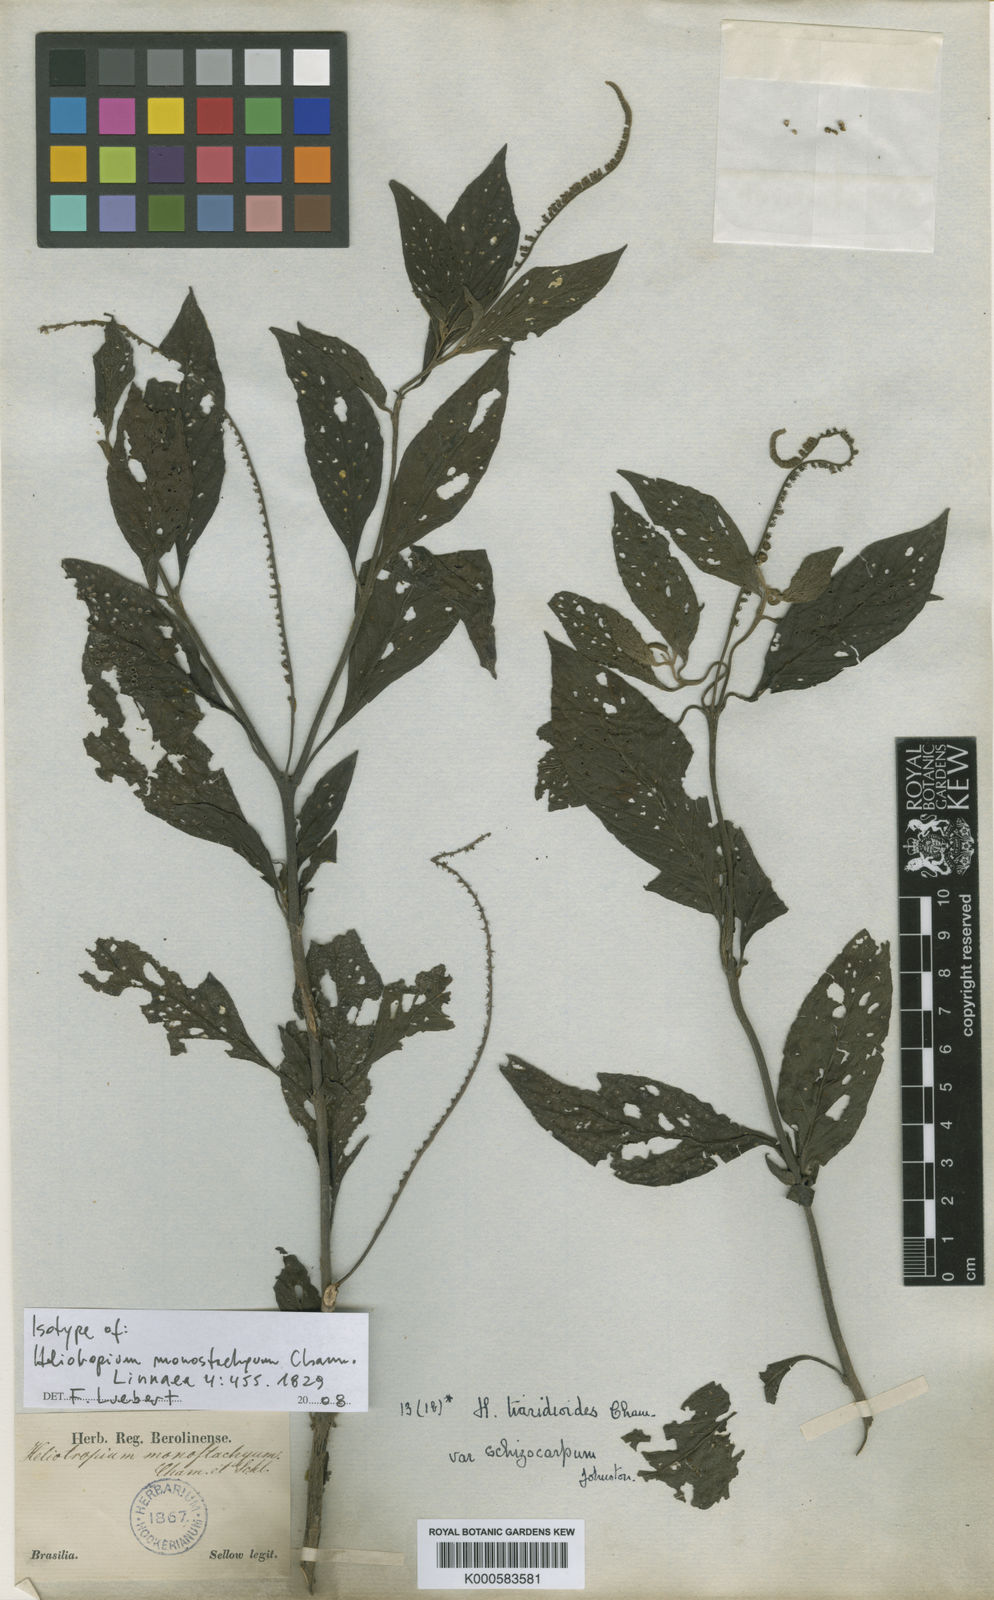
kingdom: Plantae
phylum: Tracheophyta
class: Magnoliopsida
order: Boraginales
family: Heliotropiaceae
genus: Heliotropium
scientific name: Heliotropium transalpinum
